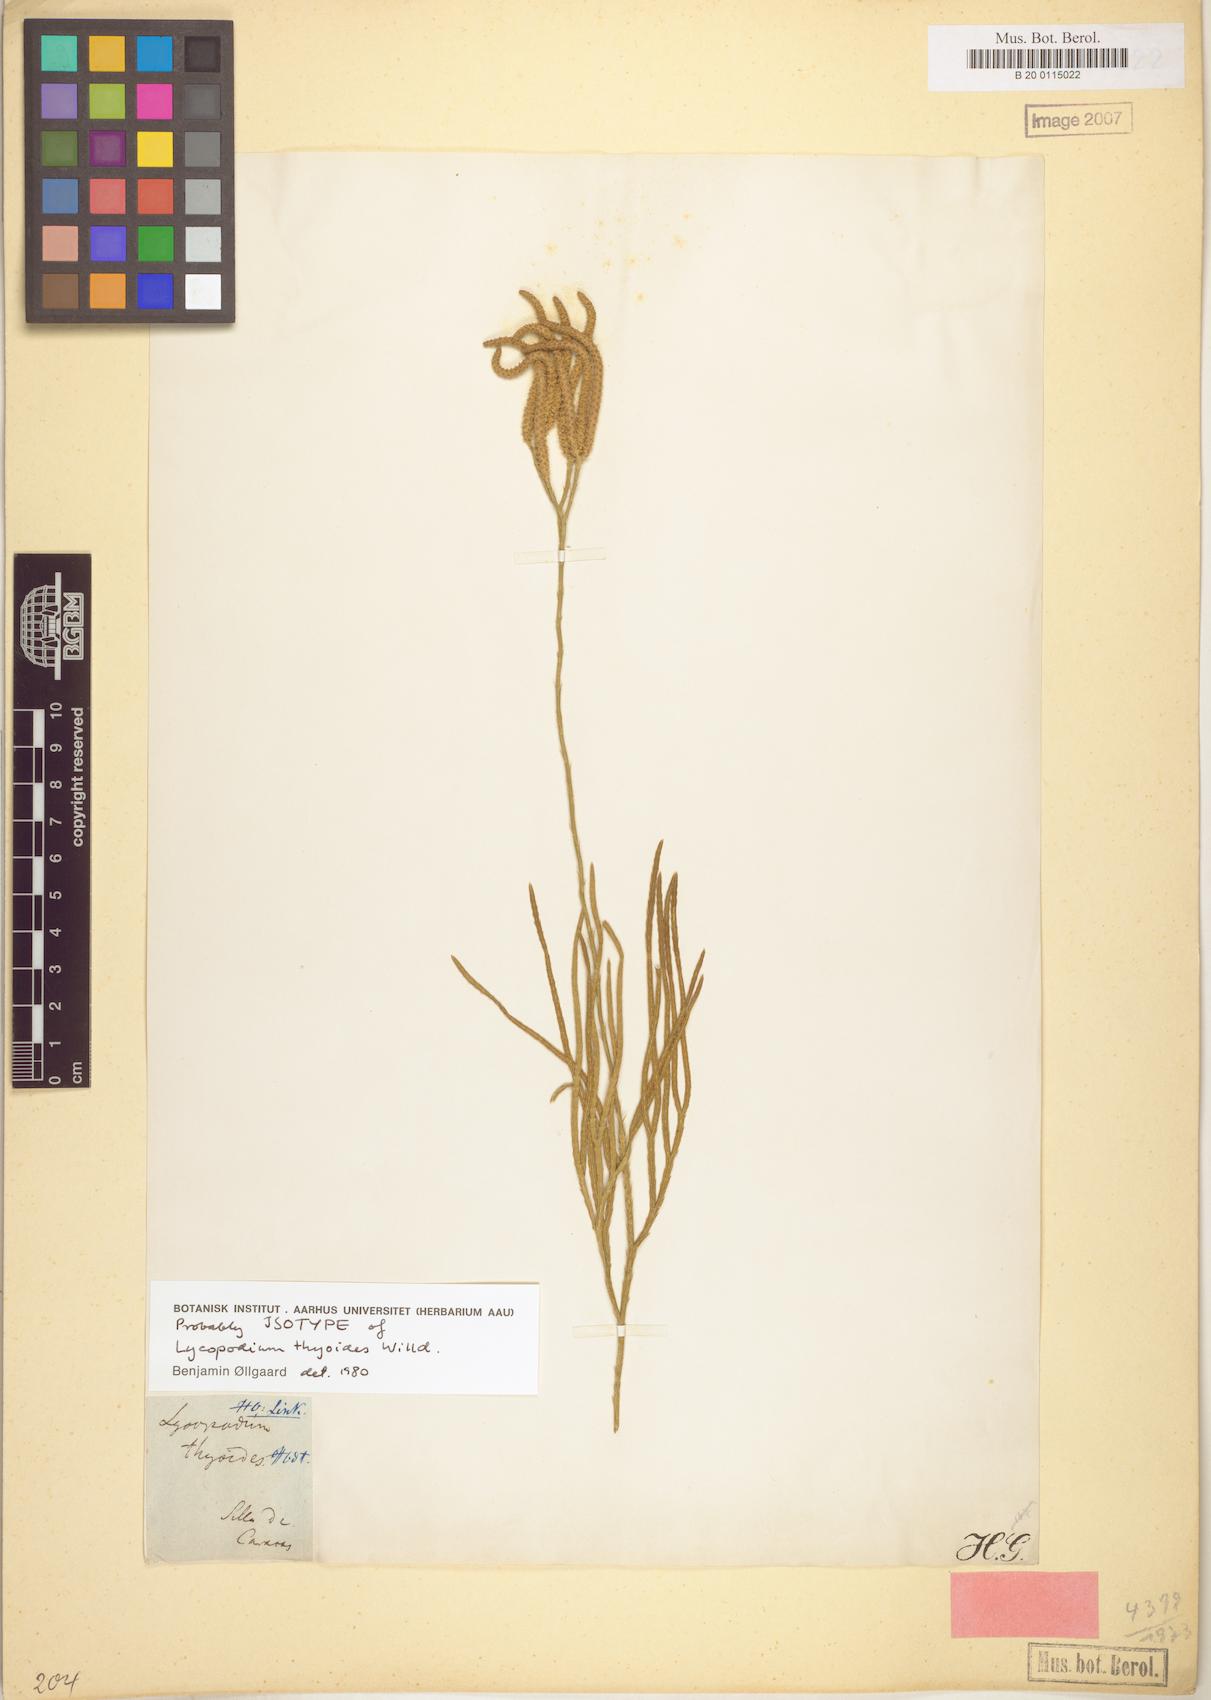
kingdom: Plantae
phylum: Tracheophyta
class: Lycopodiopsida
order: Lycopodiales
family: Lycopodiaceae
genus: Diphasiastrum
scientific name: Diphasiastrum thyoides
